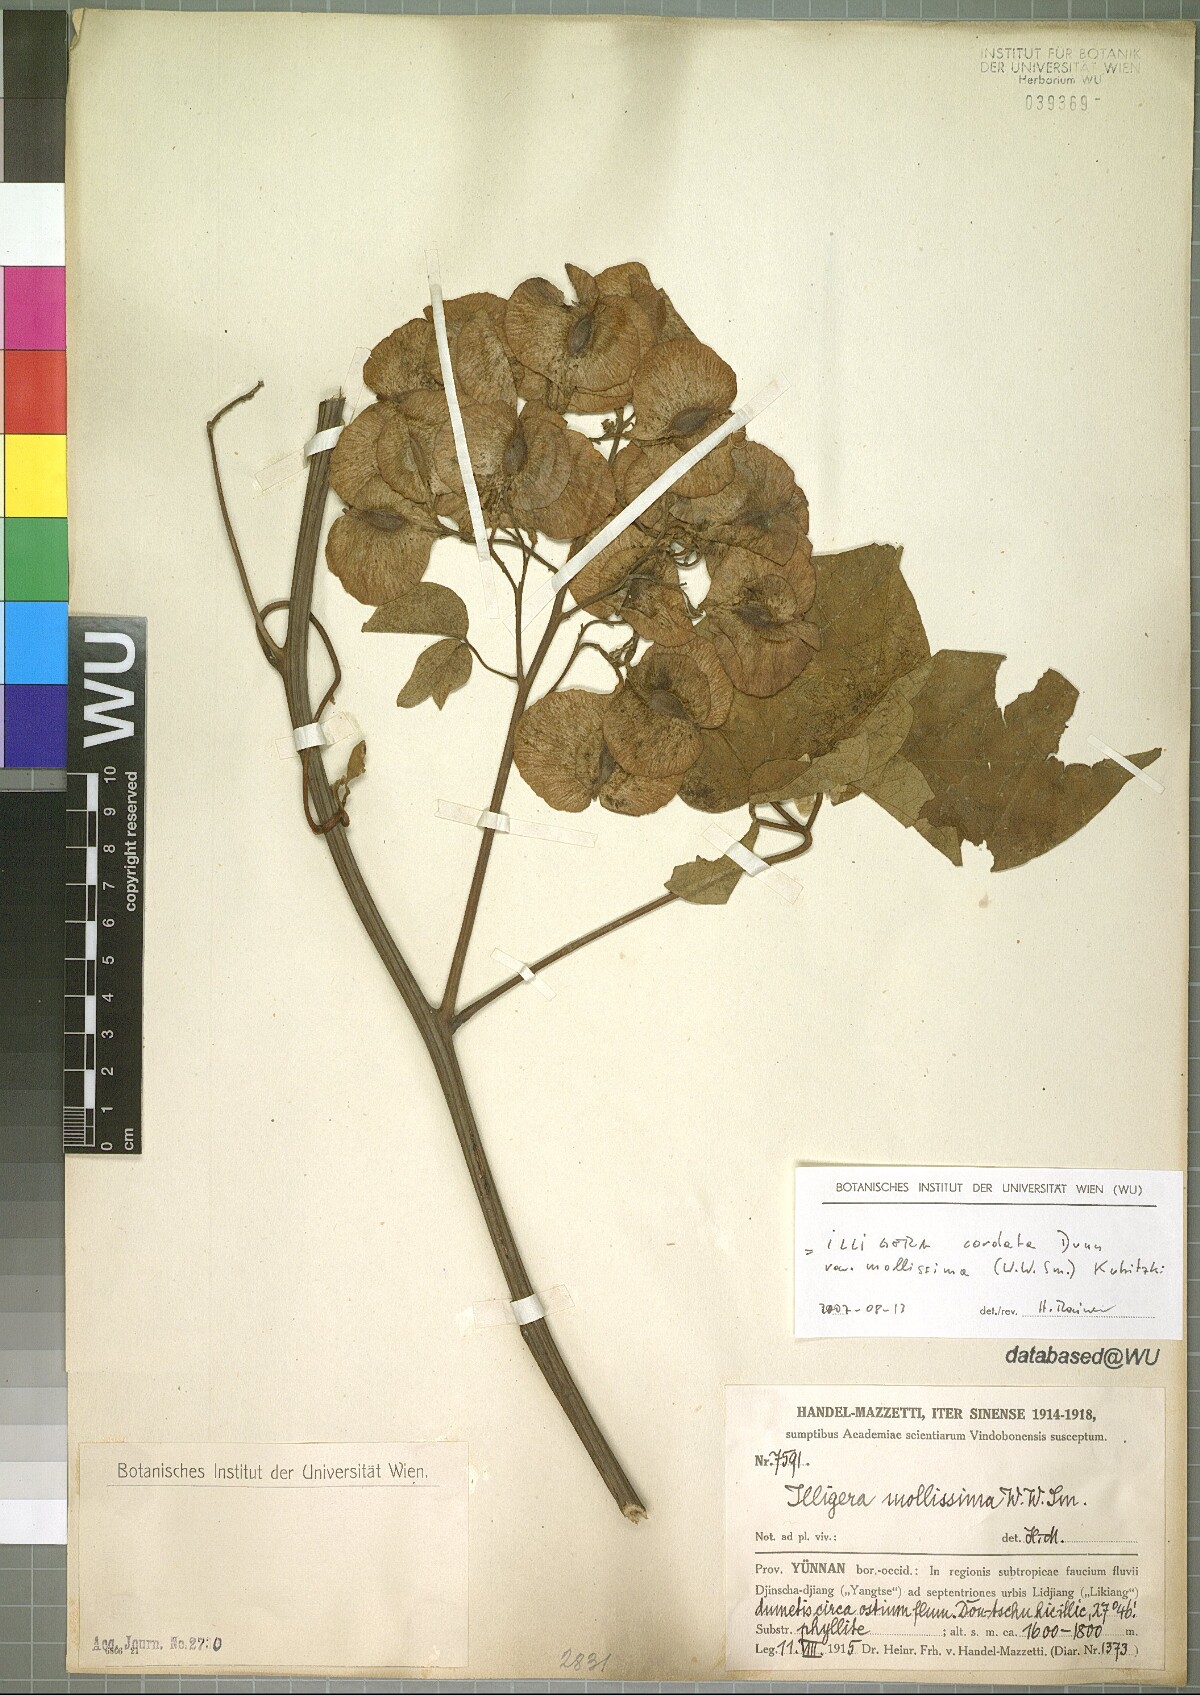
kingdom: Plantae
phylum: Tracheophyta
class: Magnoliopsida
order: Laurales
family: Hernandiaceae
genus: Illigera
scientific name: Illigera cordata
